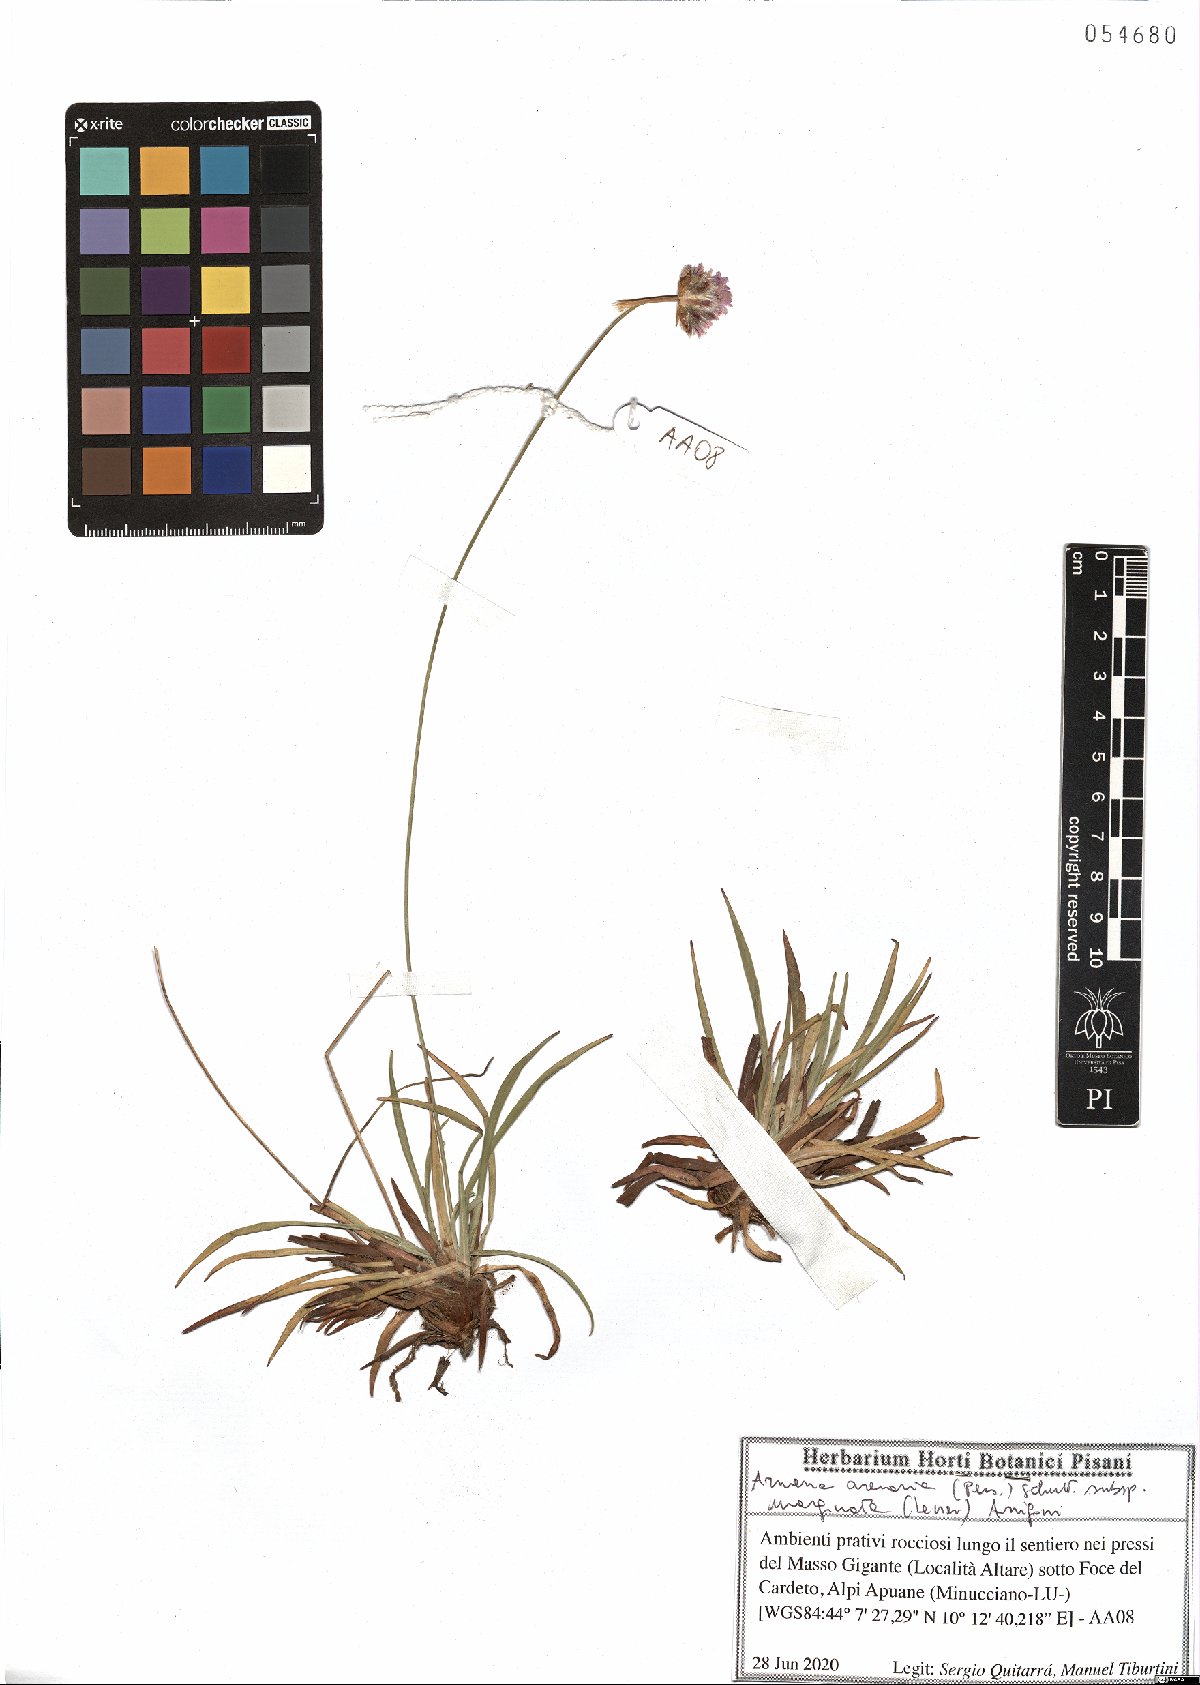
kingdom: Plantae
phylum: Tracheophyta
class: Magnoliopsida
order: Caryophyllales
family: Plumbaginaceae
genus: Armeria
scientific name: Armeria arenaria
